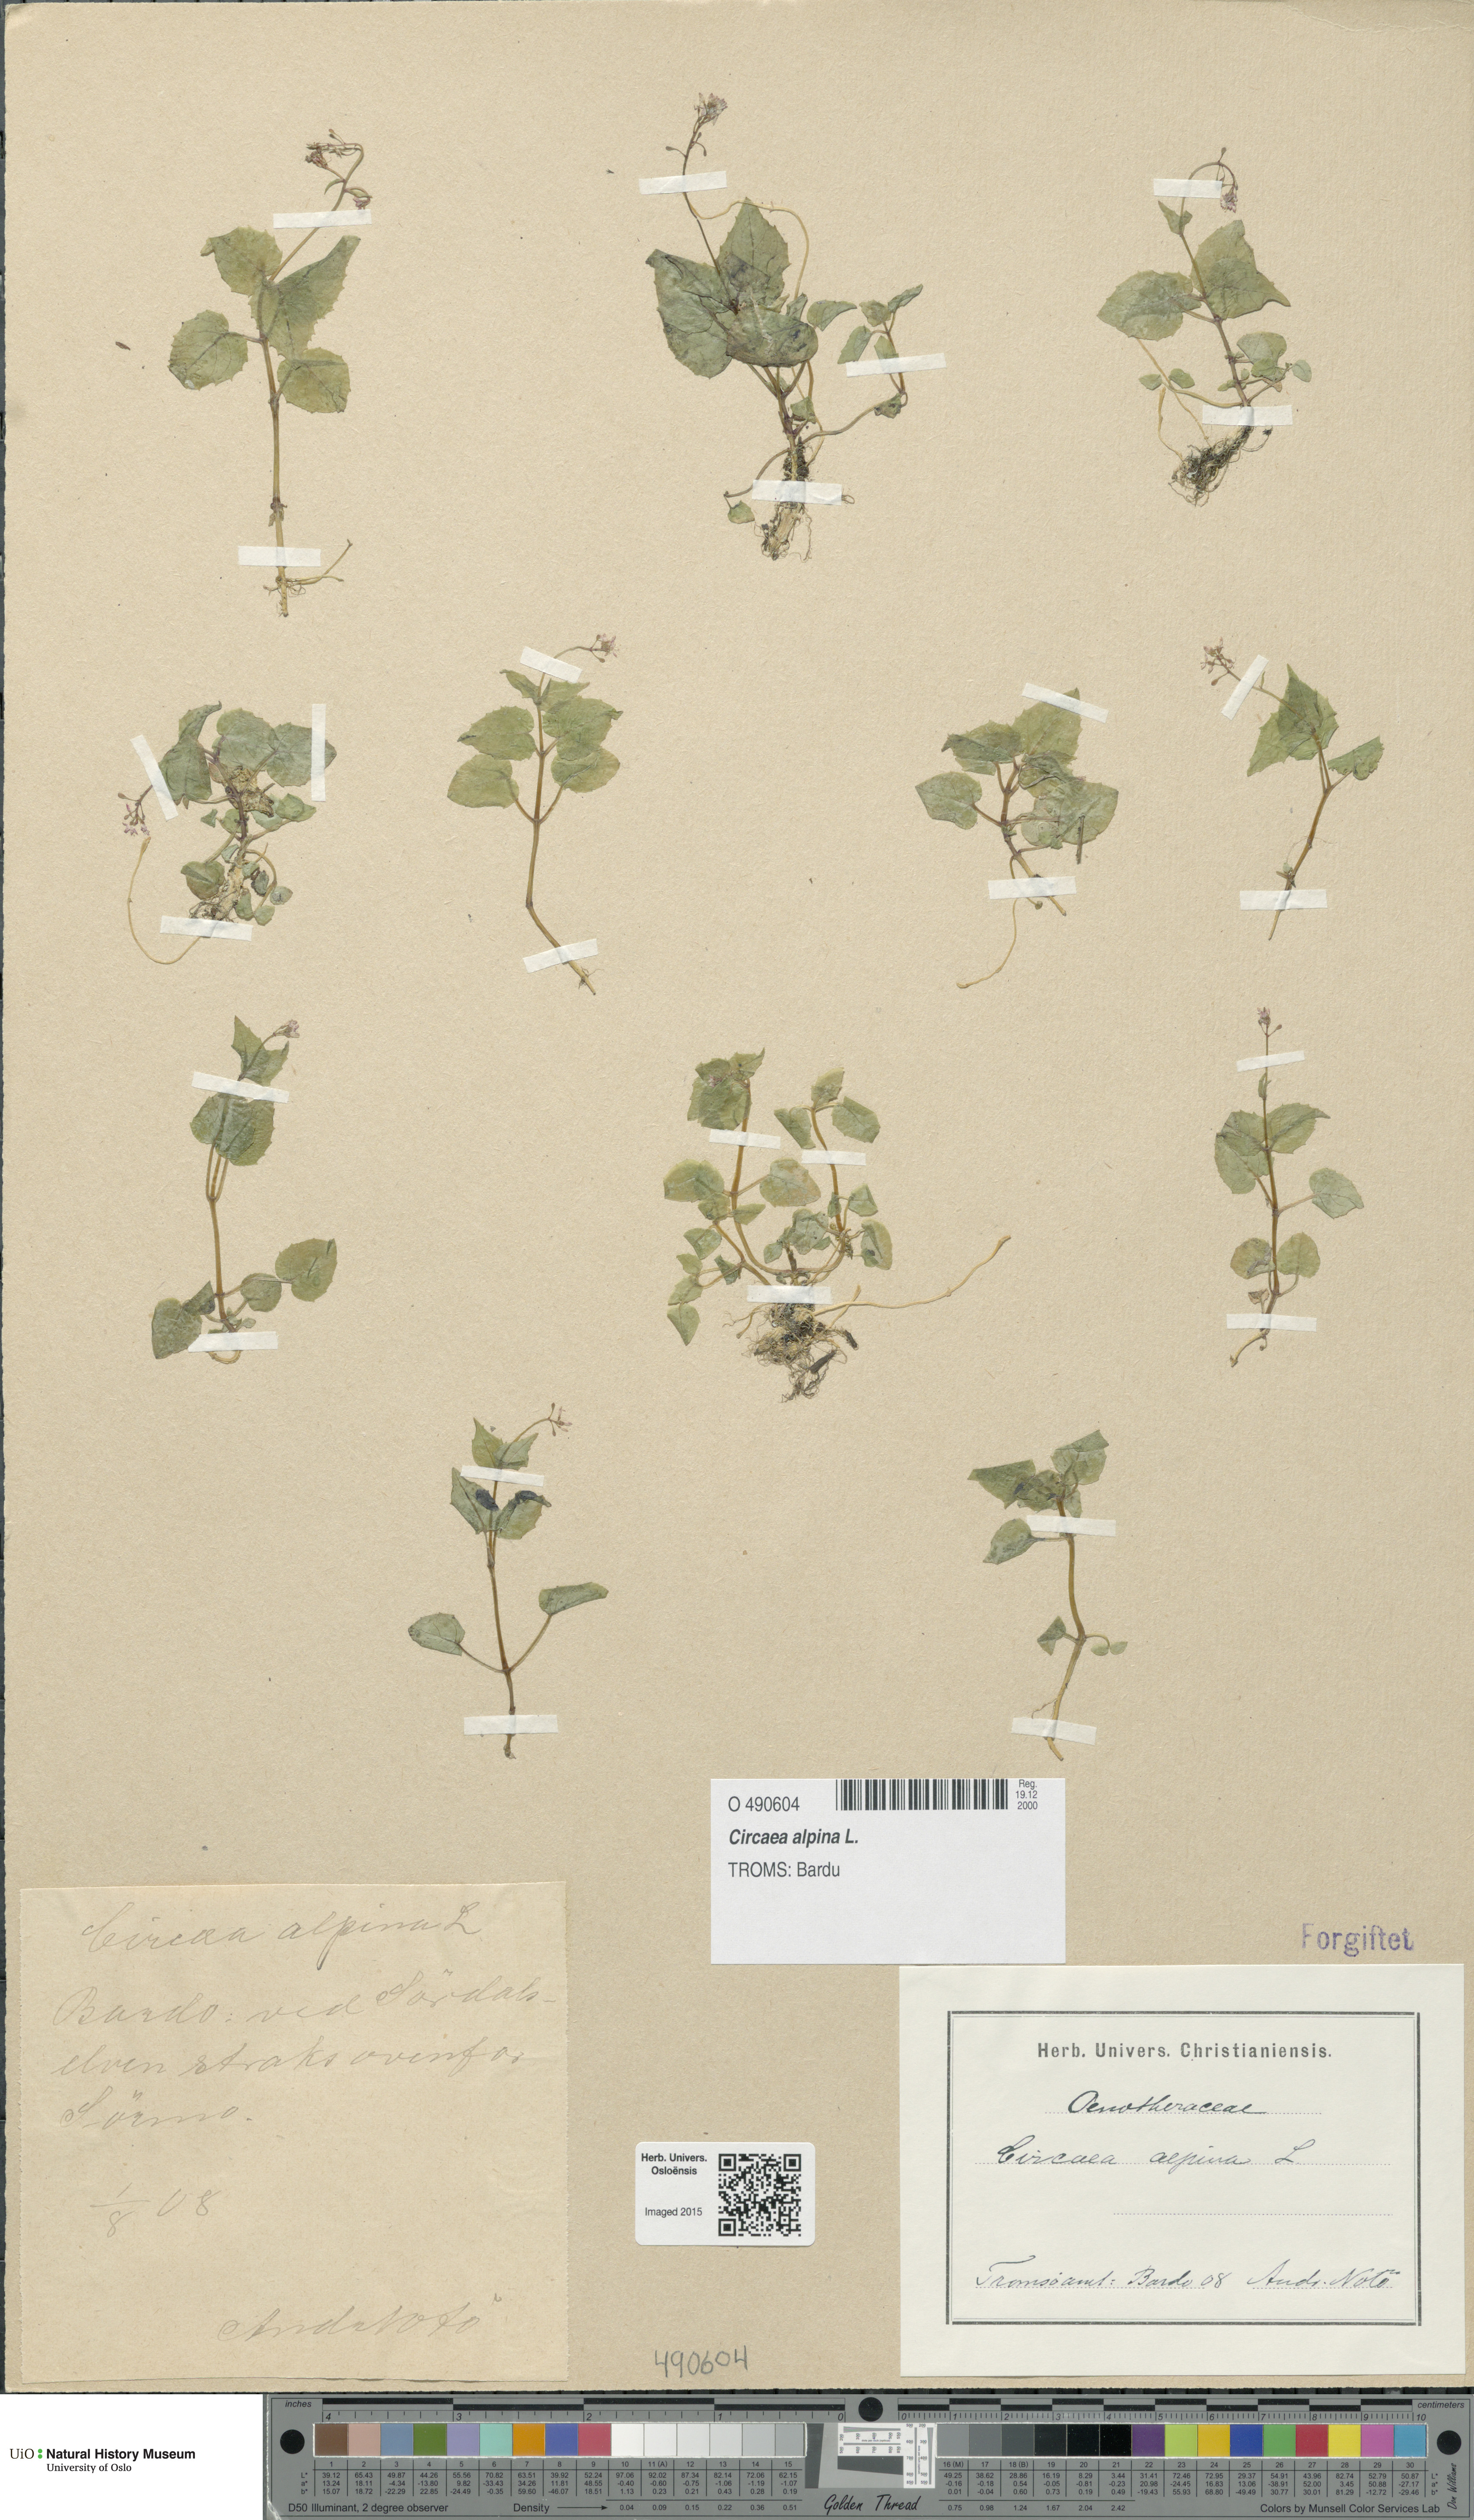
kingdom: Plantae
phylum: Tracheophyta
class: Magnoliopsida
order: Myrtales
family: Onagraceae
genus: Circaea
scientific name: Circaea alpina
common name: Alpine enchanter's-nightshade
